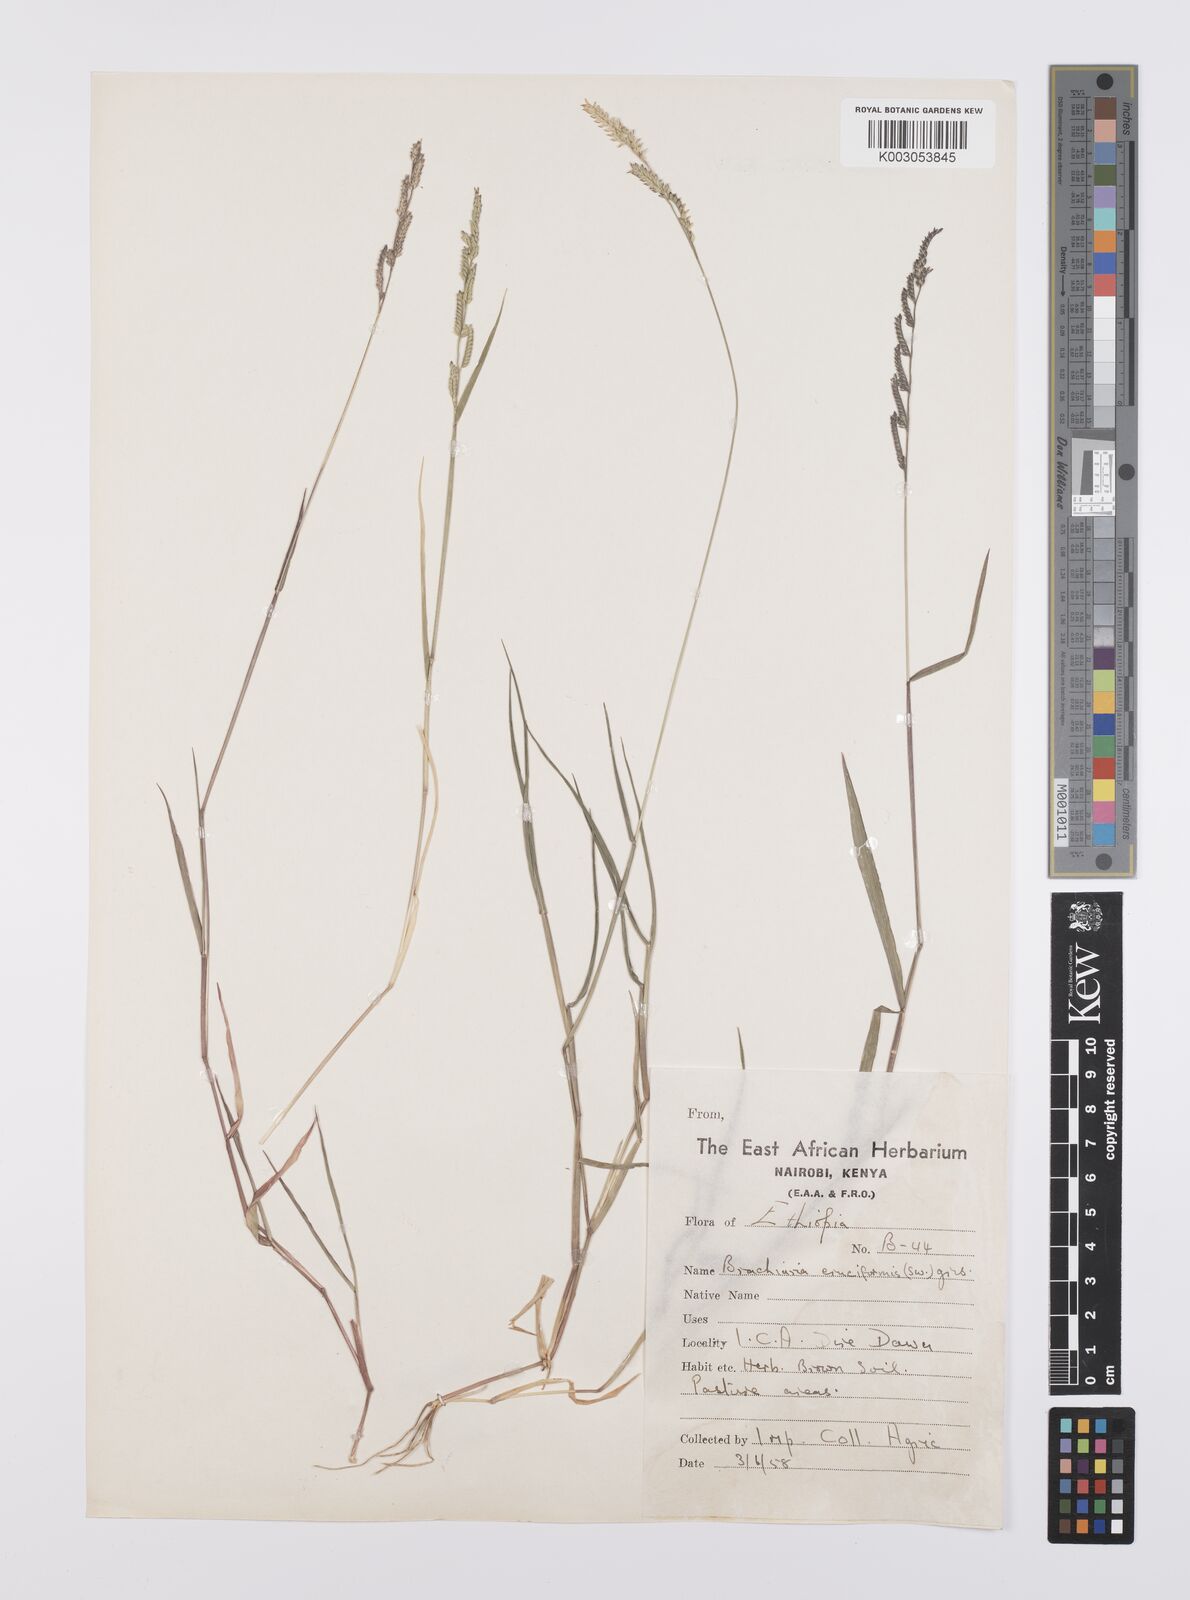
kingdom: Plantae
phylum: Tracheophyta
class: Liliopsida
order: Poales
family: Poaceae
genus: Moorochloa
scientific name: Moorochloa eruciformis
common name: Sweet signalgrass
